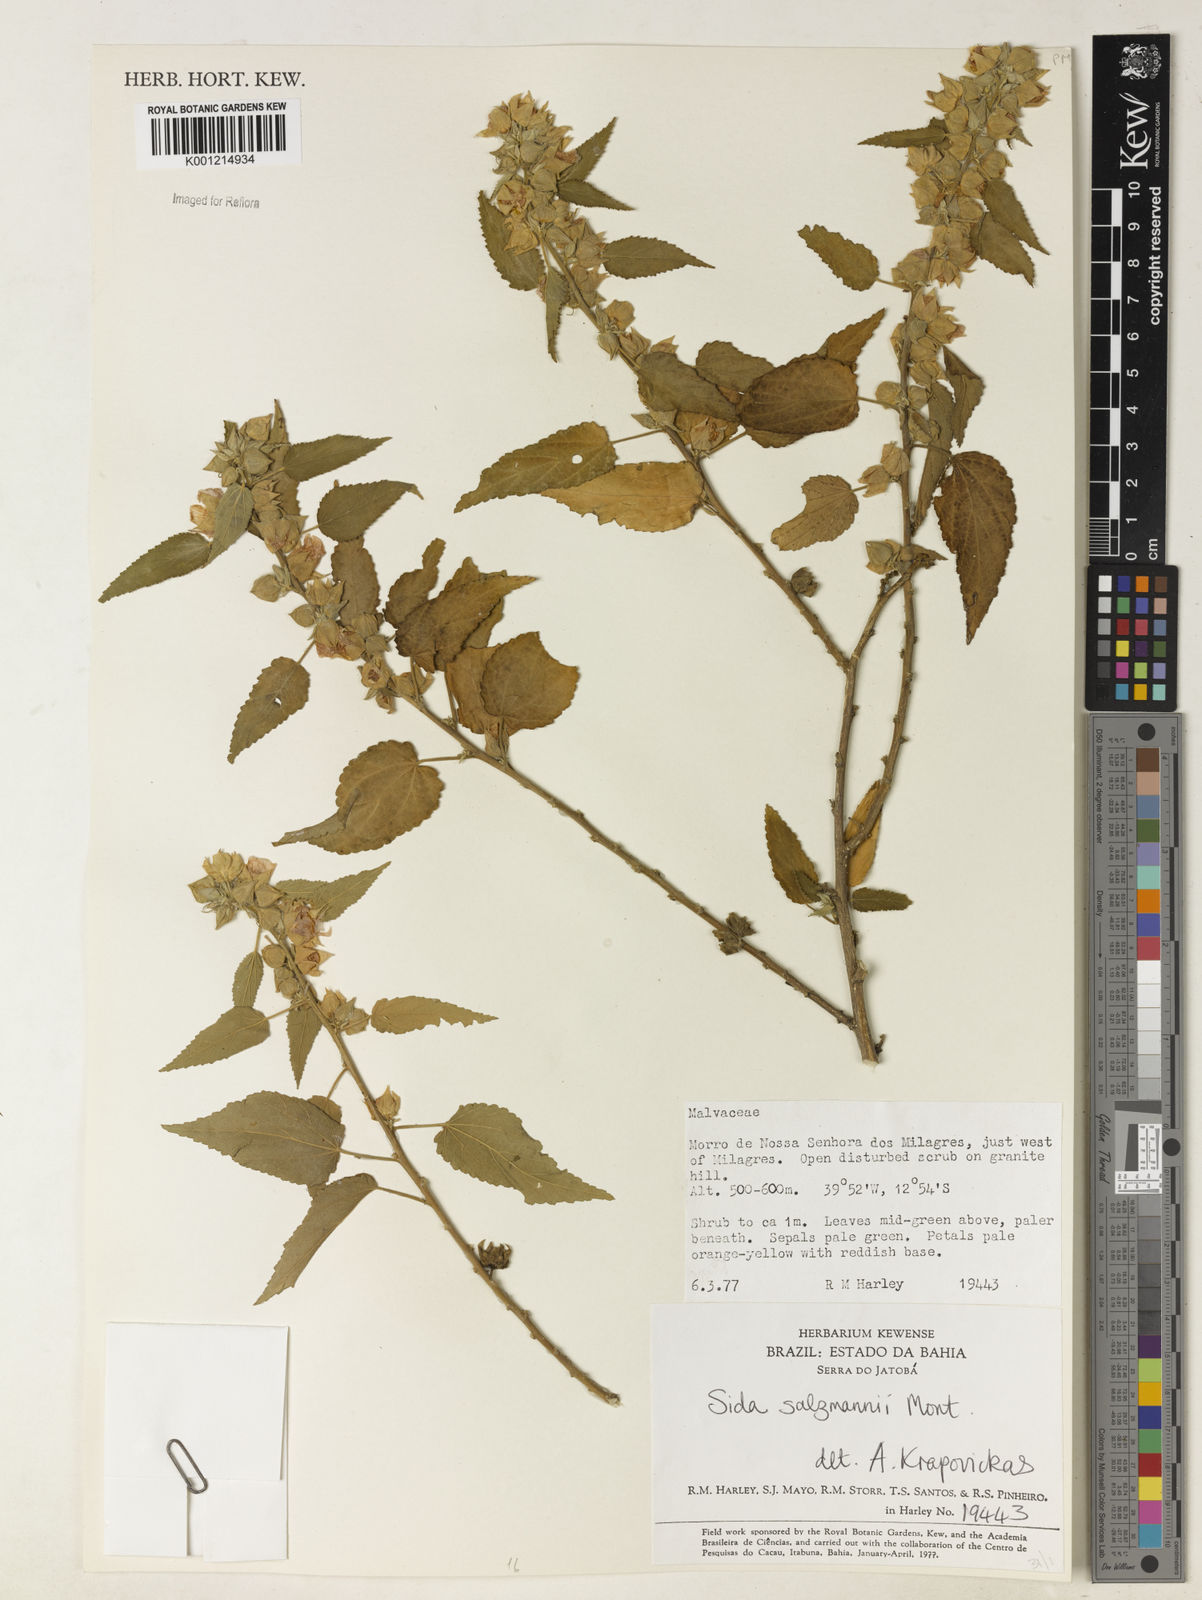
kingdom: Plantae
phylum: Tracheophyta
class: Magnoliopsida
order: Malvales
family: Malvaceae
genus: Sida
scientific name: Sida ulei
